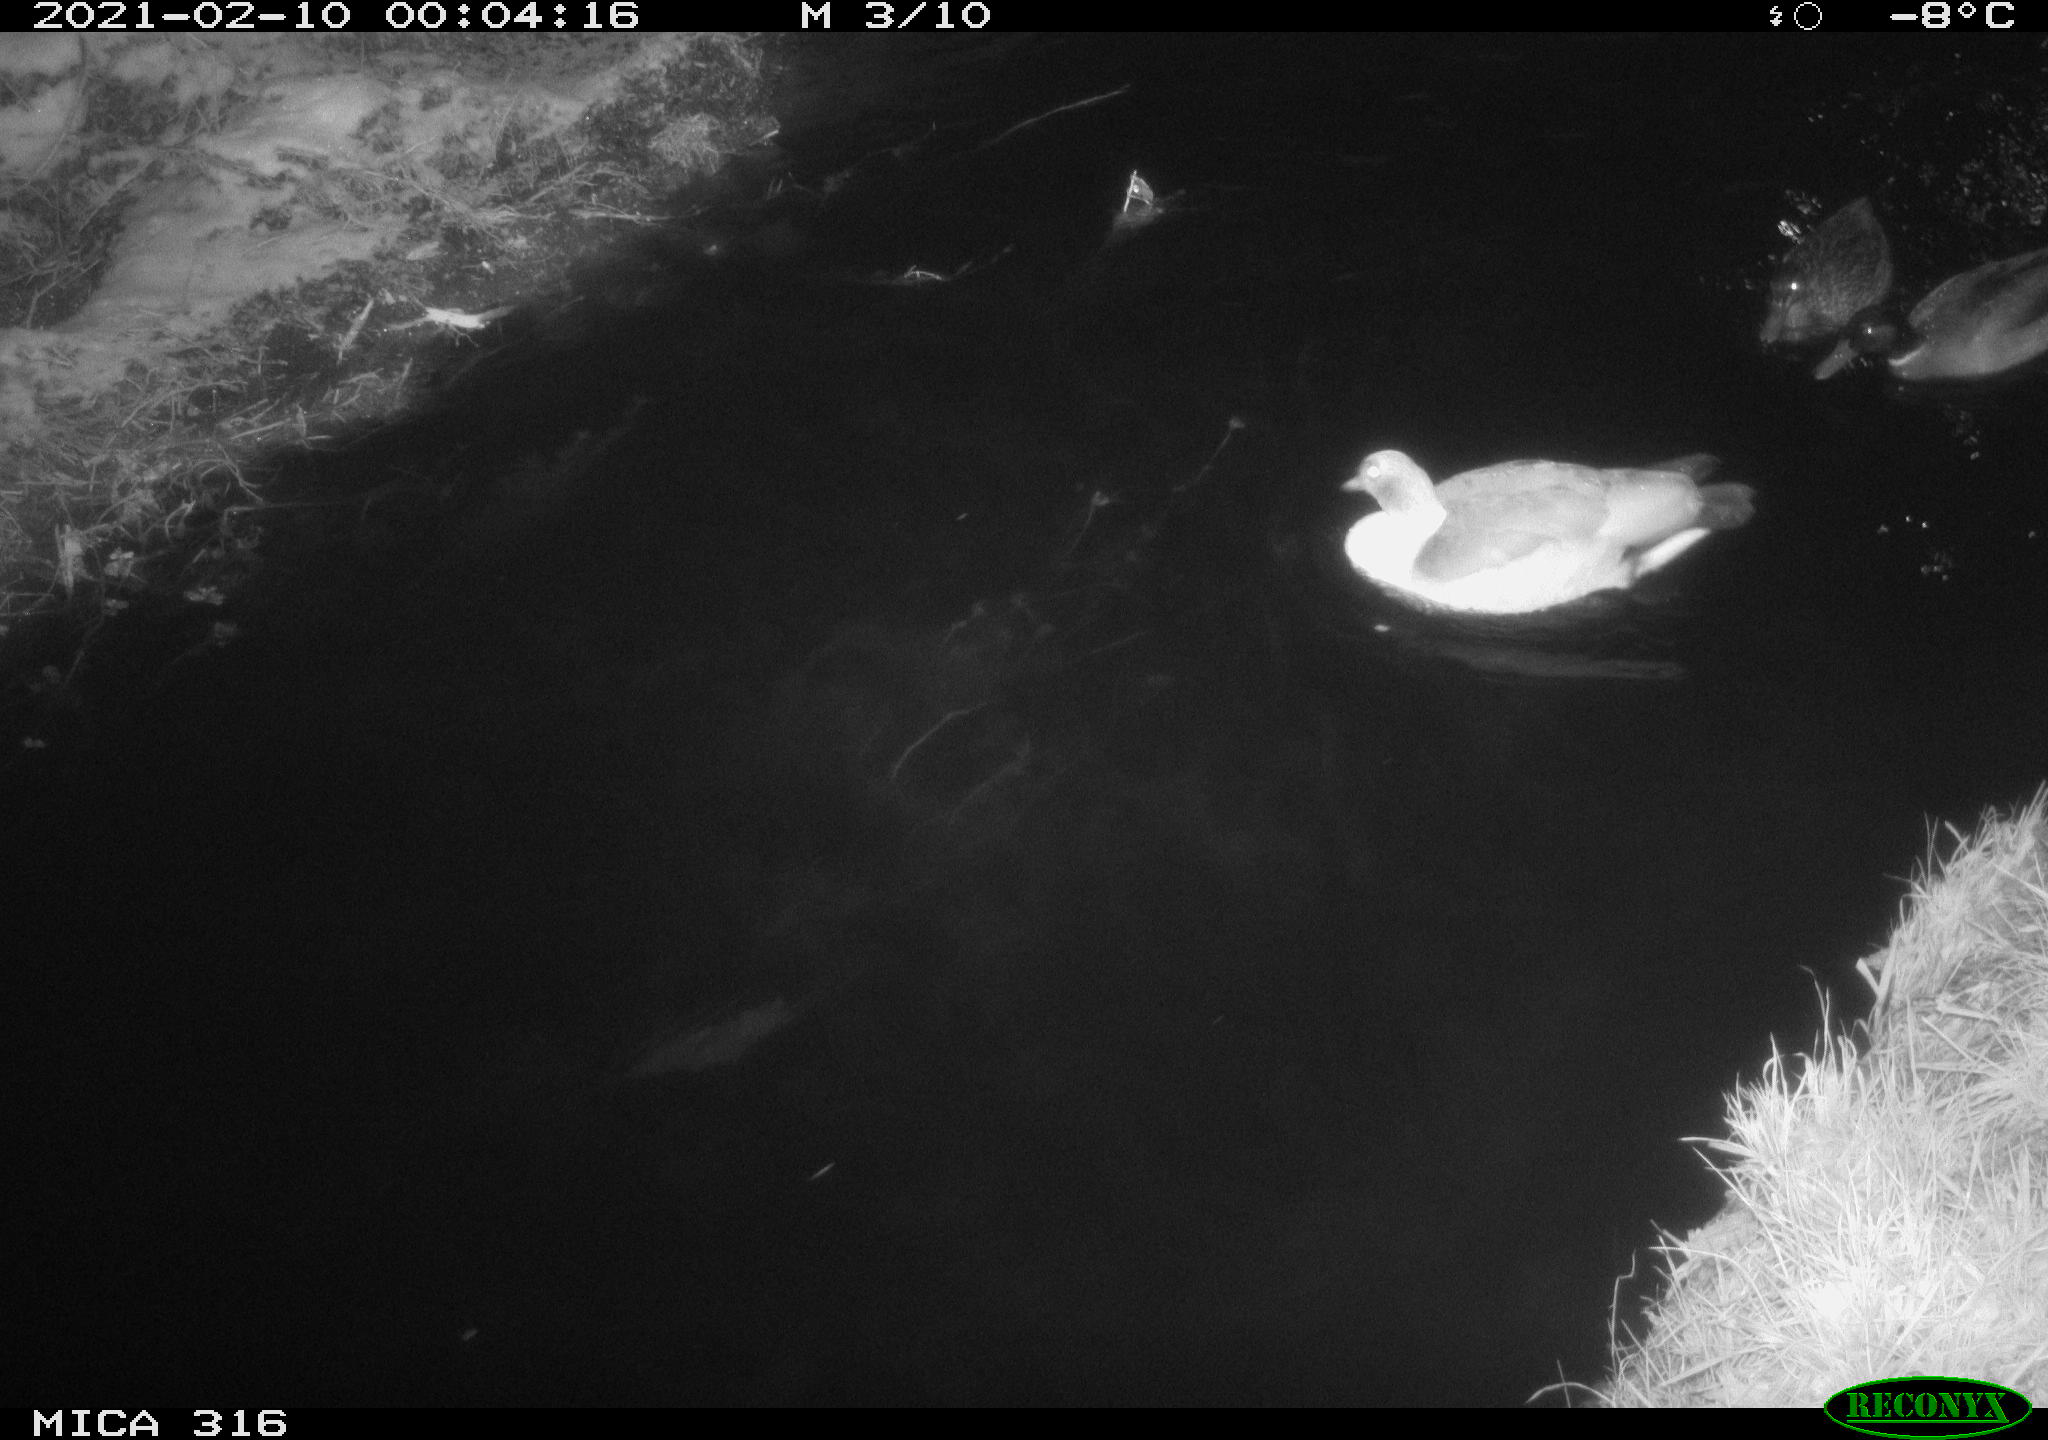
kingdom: Animalia
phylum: Chordata
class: Aves
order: Anseriformes
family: Anatidae
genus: Mareca
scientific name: Mareca strepera
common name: Gadwall
